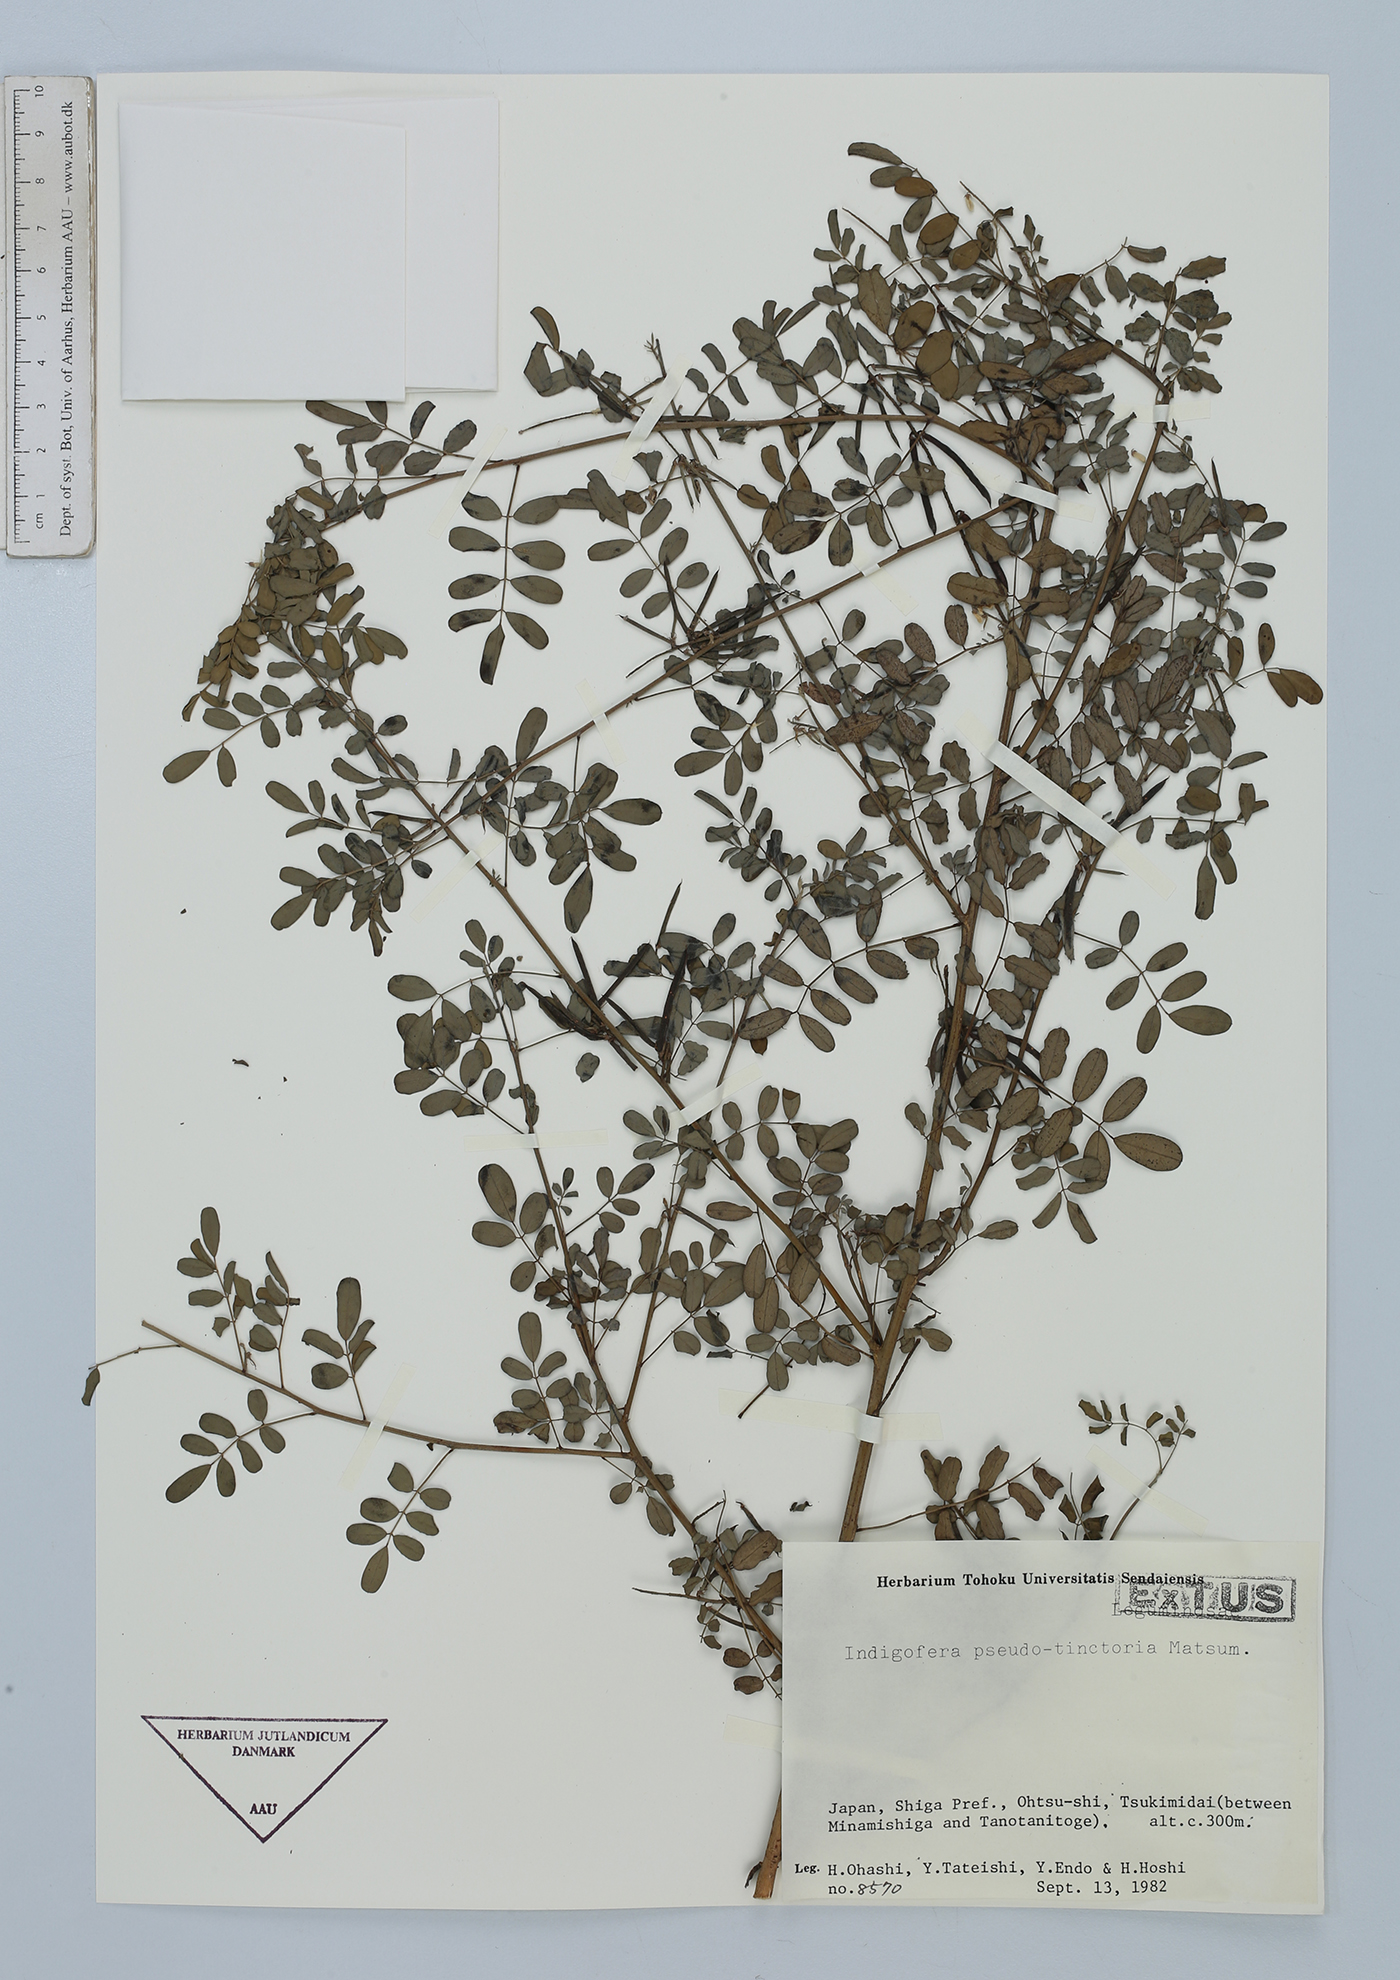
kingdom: Plantae
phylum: Tracheophyta
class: Magnoliopsida
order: Fabales
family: Fabaceae
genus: Indigofera
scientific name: Indigofera bungeana
